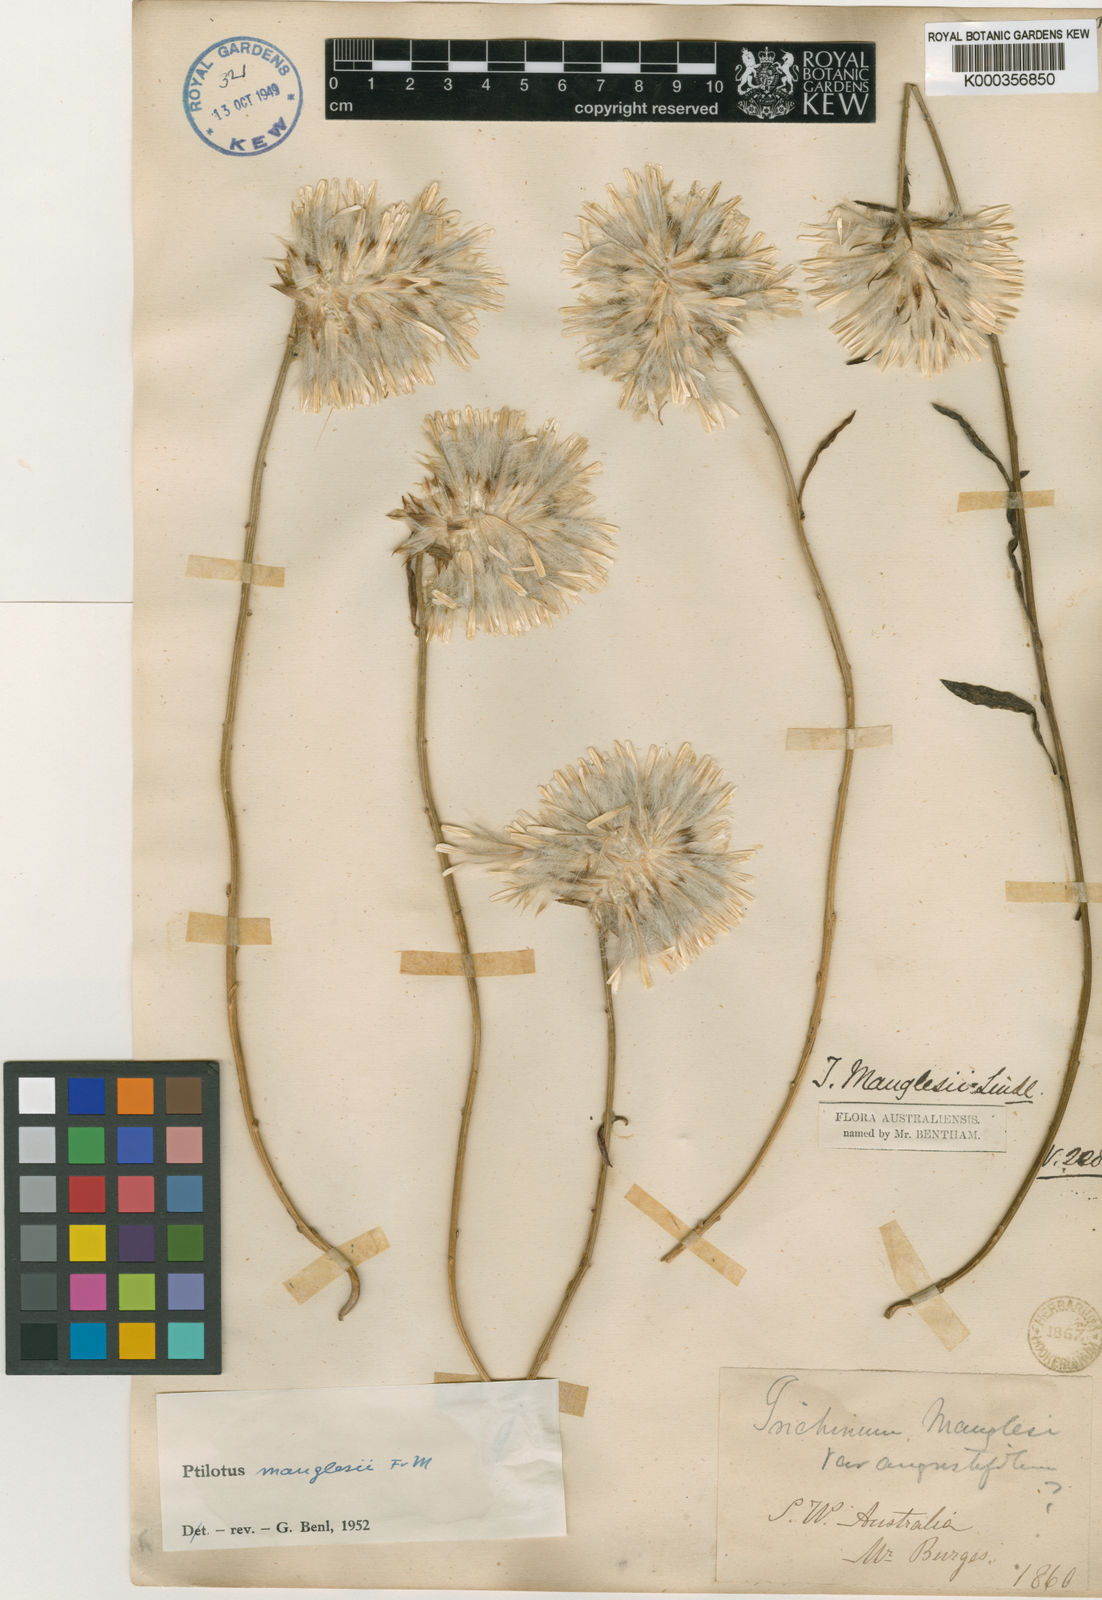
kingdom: Plantae
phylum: Tracheophyta
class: Magnoliopsida
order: Caryophyllales
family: Amaranthaceae
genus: Ptilotus
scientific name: Ptilotus manglesii
